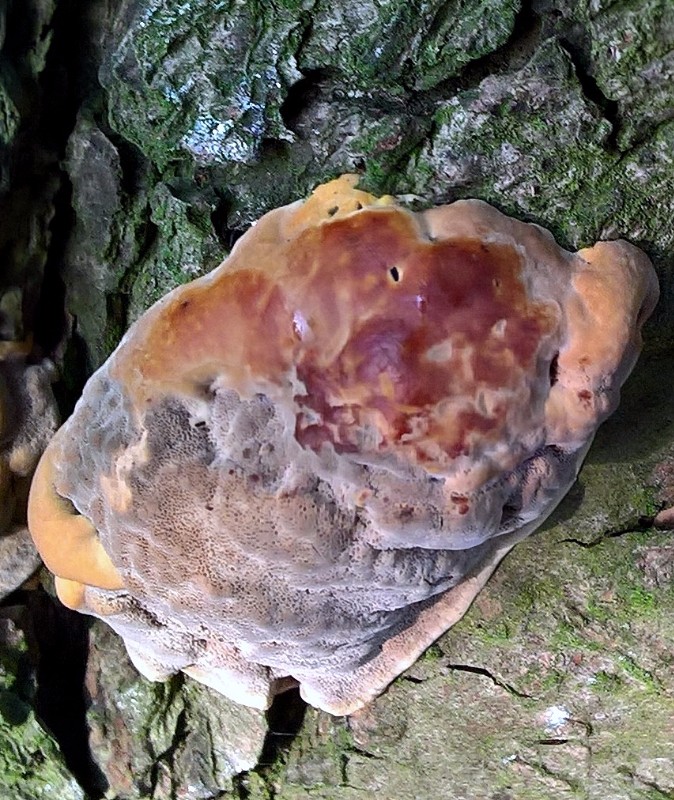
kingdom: Fungi
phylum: Basidiomycota
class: Agaricomycetes
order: Hymenochaetales
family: Hymenochaetaceae
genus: Xanthoporia
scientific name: Xanthoporia radiata
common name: elle-spejlporesvamp
